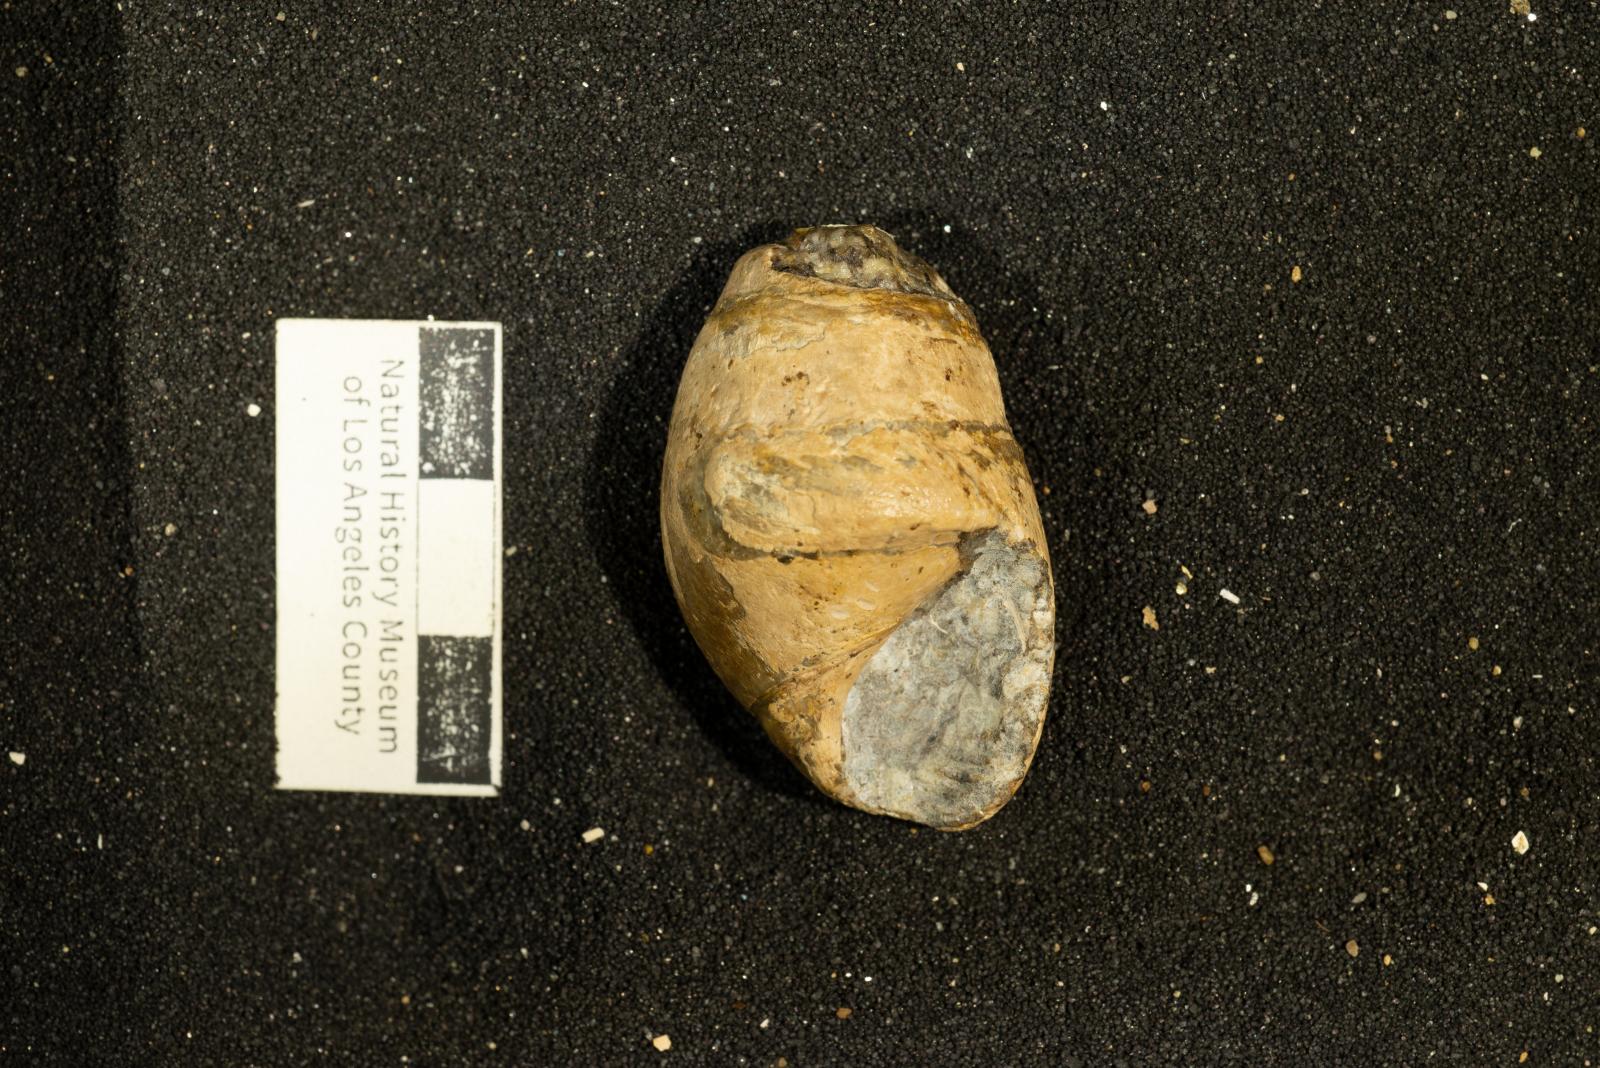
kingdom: Animalia
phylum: Mollusca
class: Gastropoda
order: Cephalaspidea
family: Acteonidae
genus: Tornatellaea
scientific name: Tornatellaea
